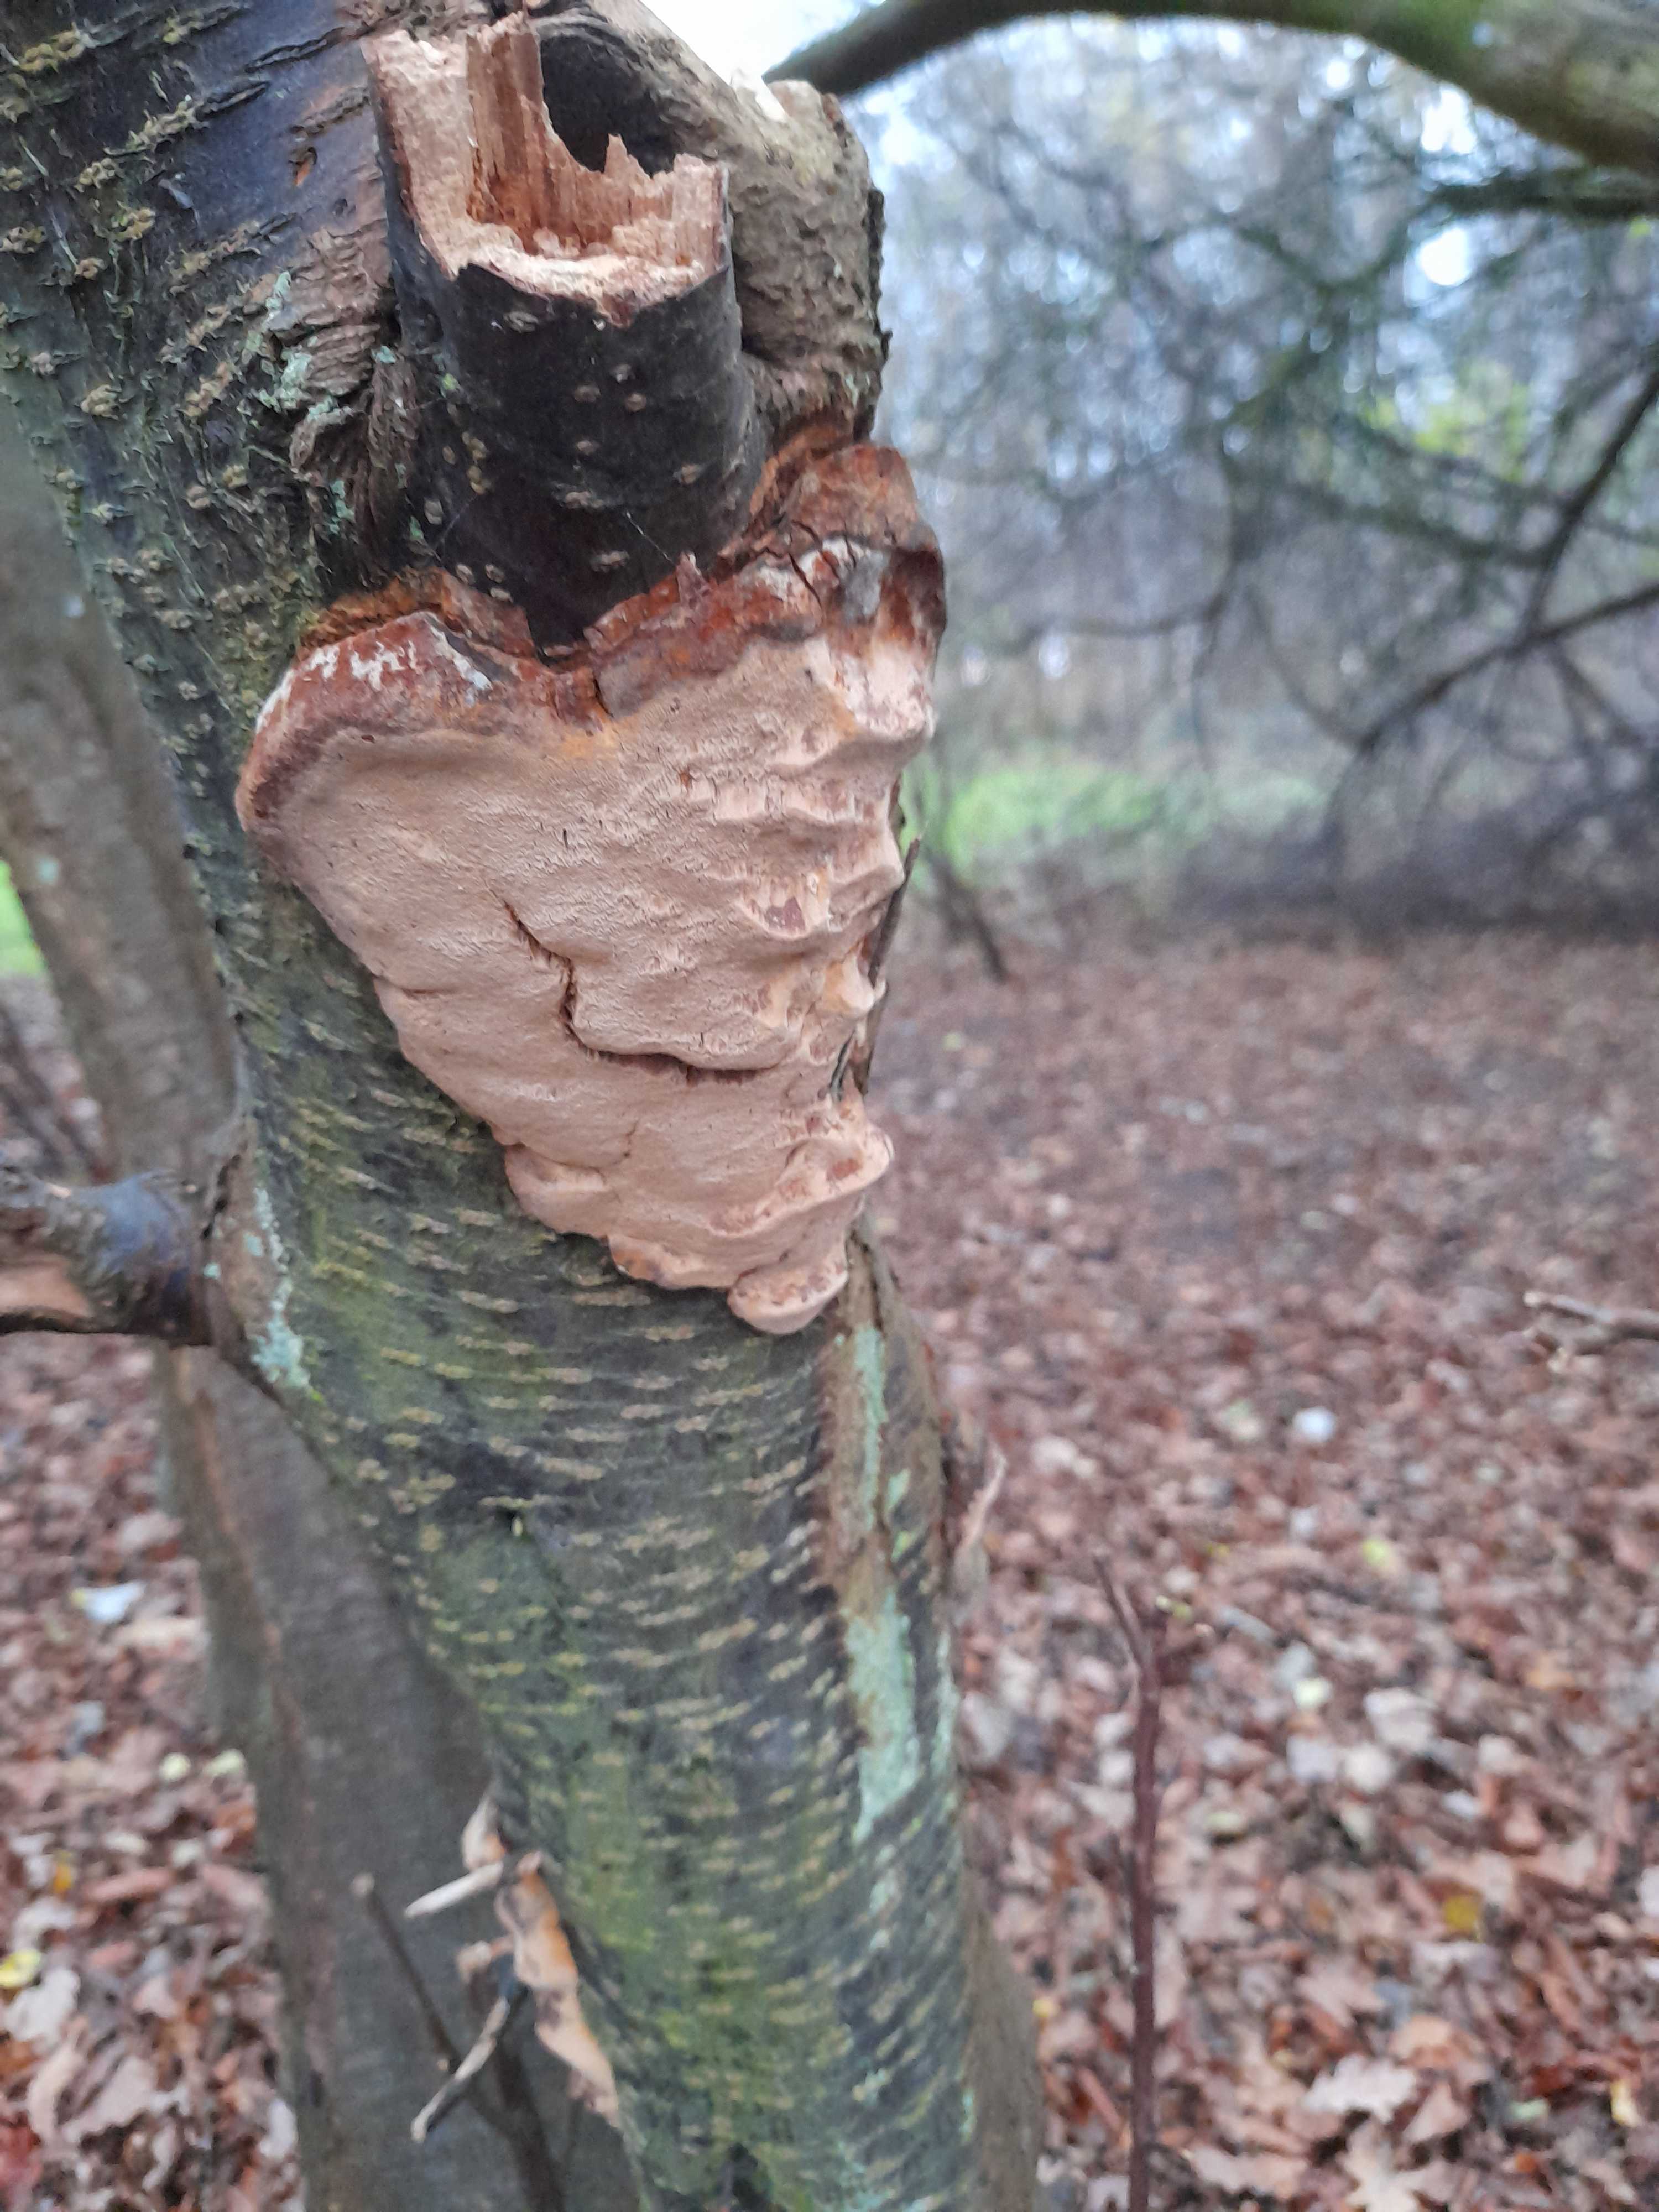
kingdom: Fungi
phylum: Basidiomycota
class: Agaricomycetes
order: Hymenochaetales
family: Hymenochaetaceae
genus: Phellinus
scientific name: Phellinus pomaceus
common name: blomme-ildporesvamp
